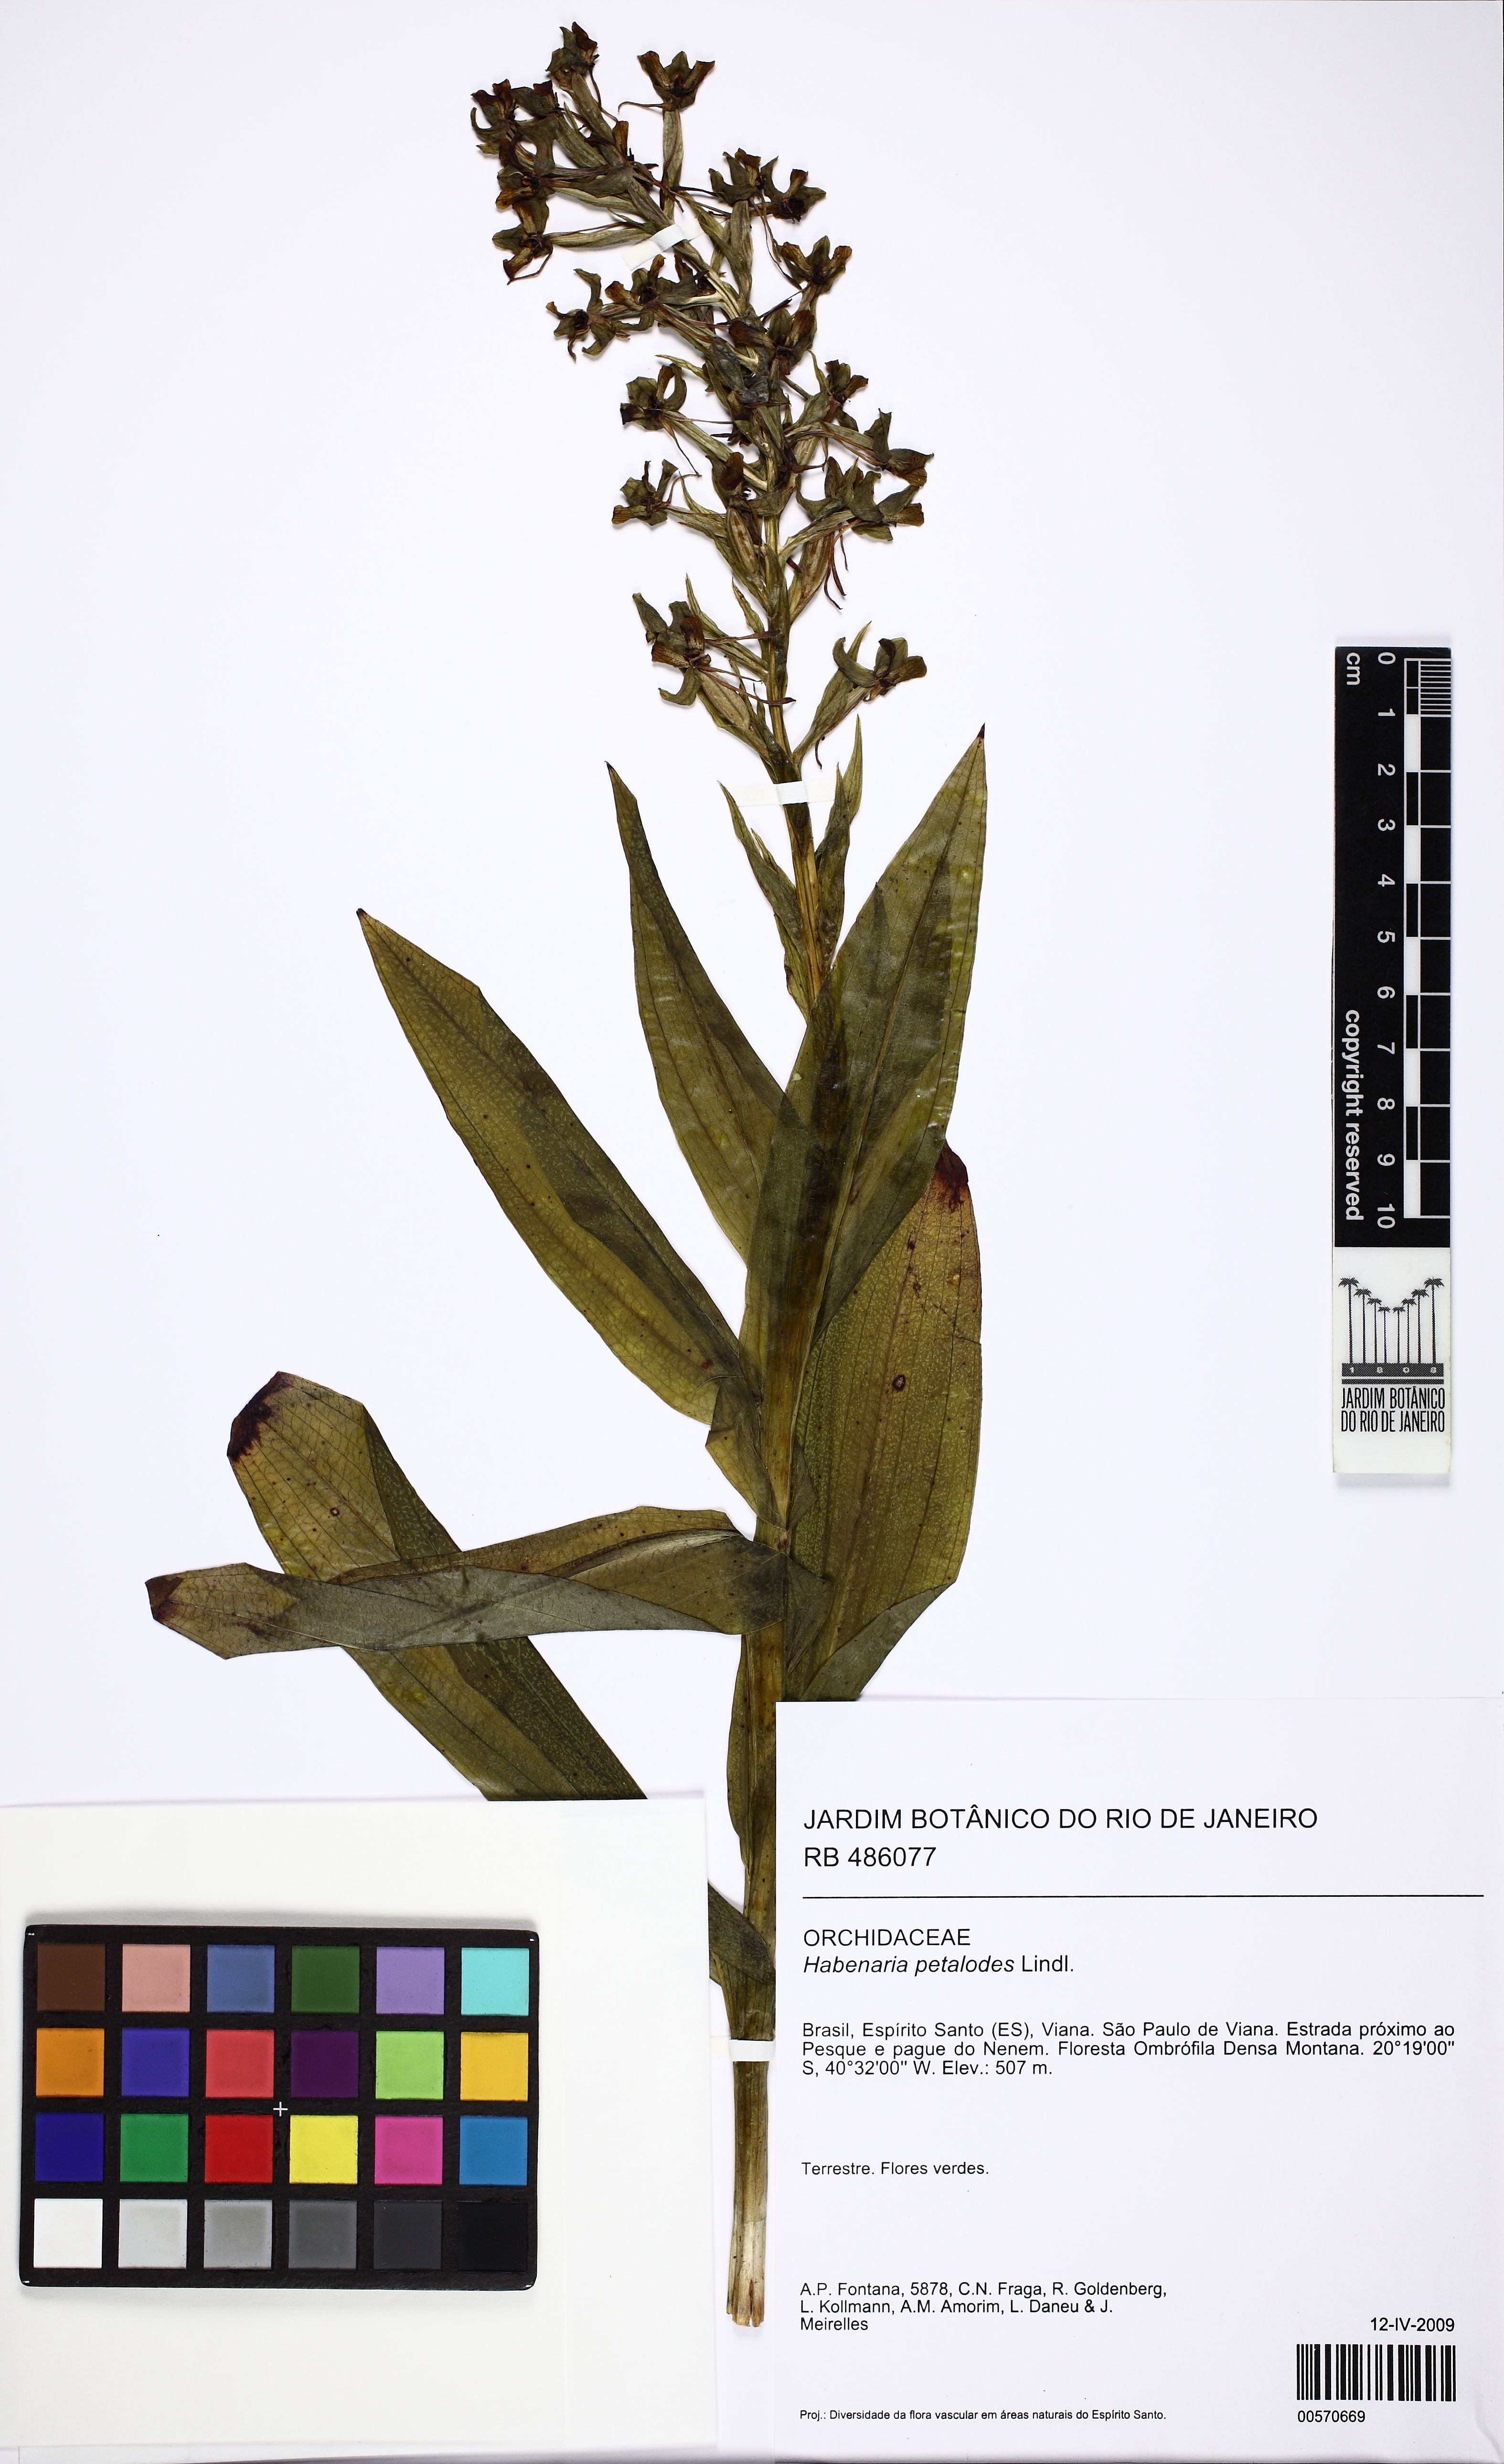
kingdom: Plantae
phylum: Tracheophyta
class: Liliopsida
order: Asparagales
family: Orchidaceae
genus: Habenaria
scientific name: Habenaria petalodes
